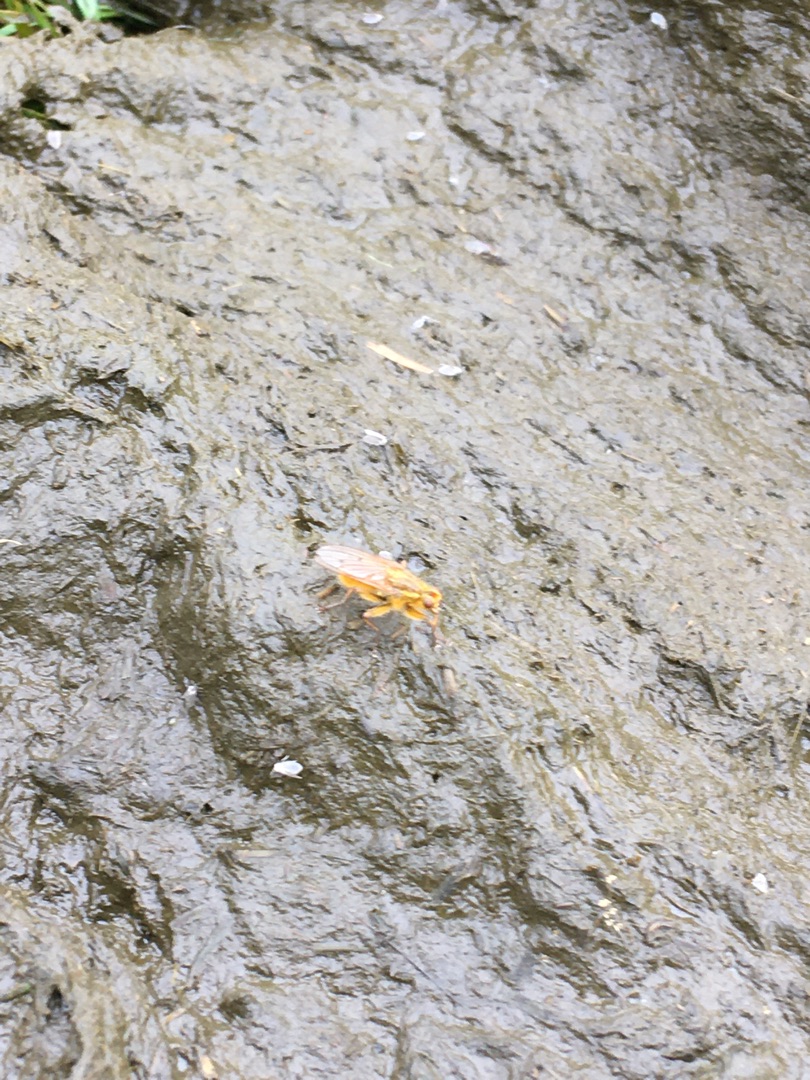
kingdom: Animalia
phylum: Arthropoda
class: Insecta
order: Diptera
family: Scathophagidae
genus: Scathophaga
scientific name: Scathophaga stercoraria
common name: Almindelig gødningsflue
